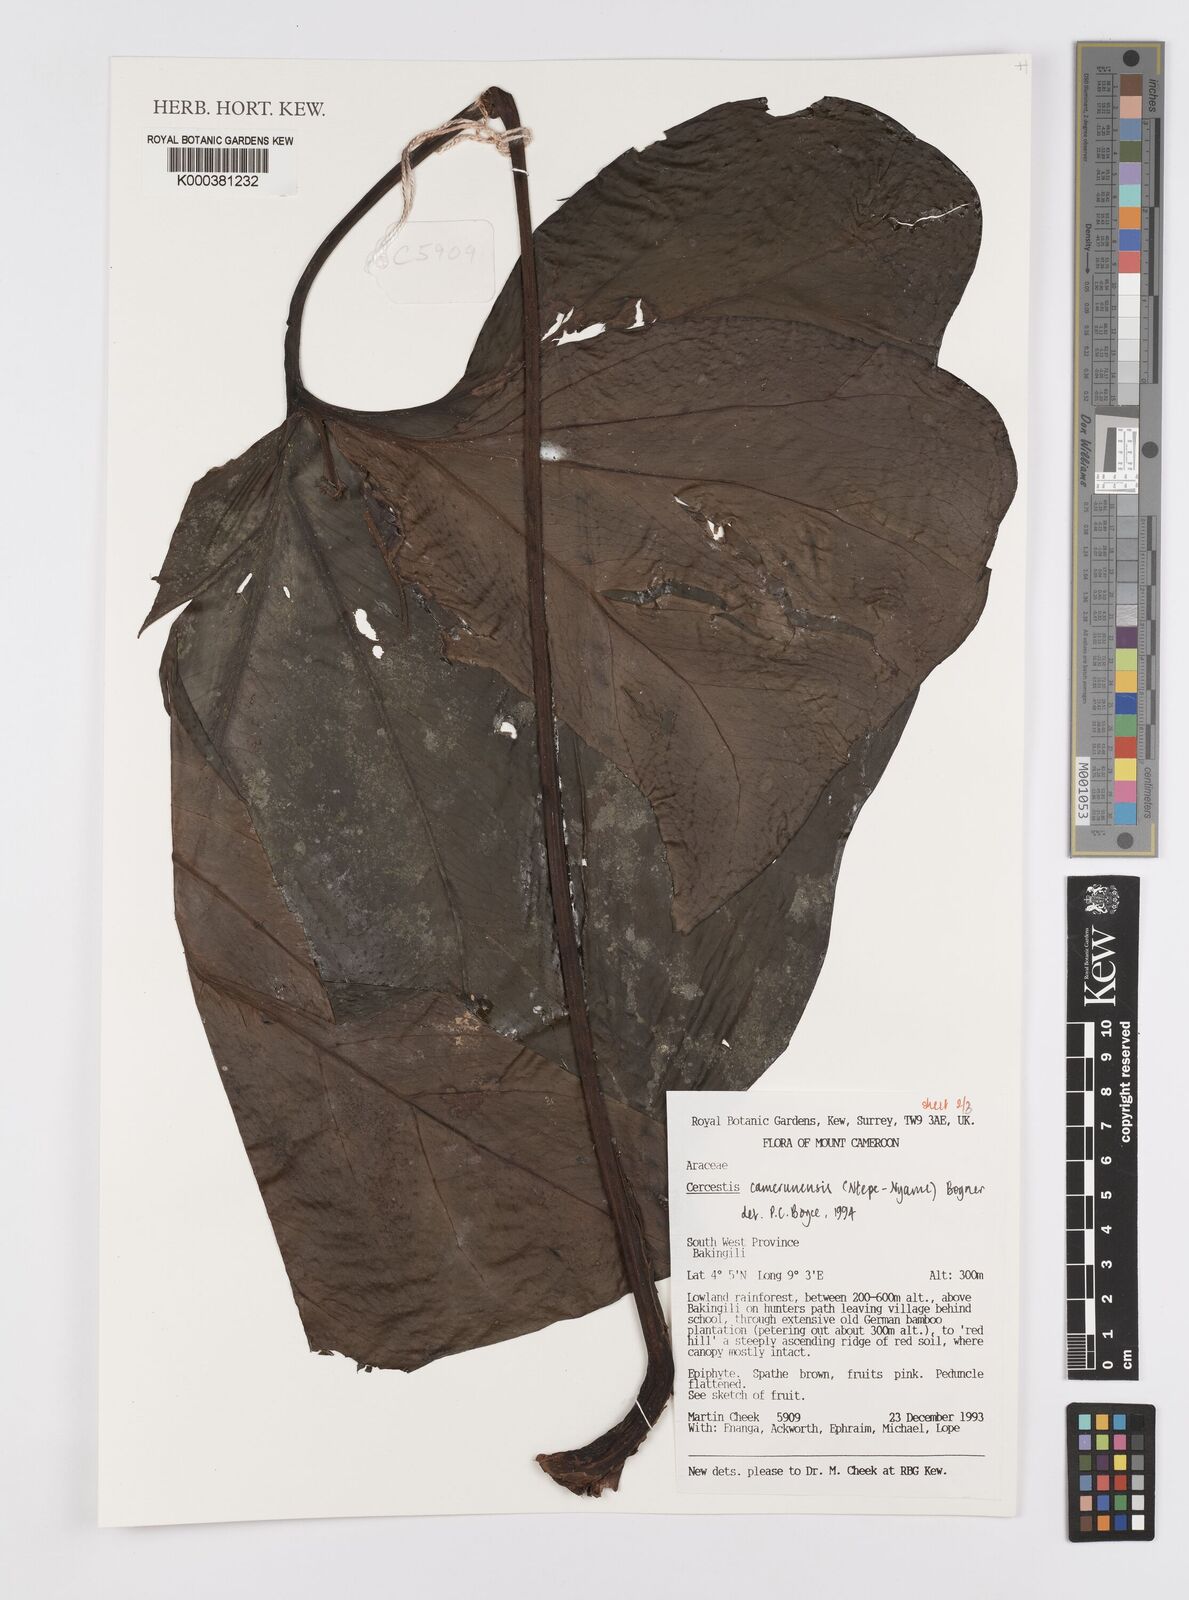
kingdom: Plantae
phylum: Tracheophyta
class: Liliopsida
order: Alismatales
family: Araceae
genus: Cercestis
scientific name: Cercestis camerunensis
